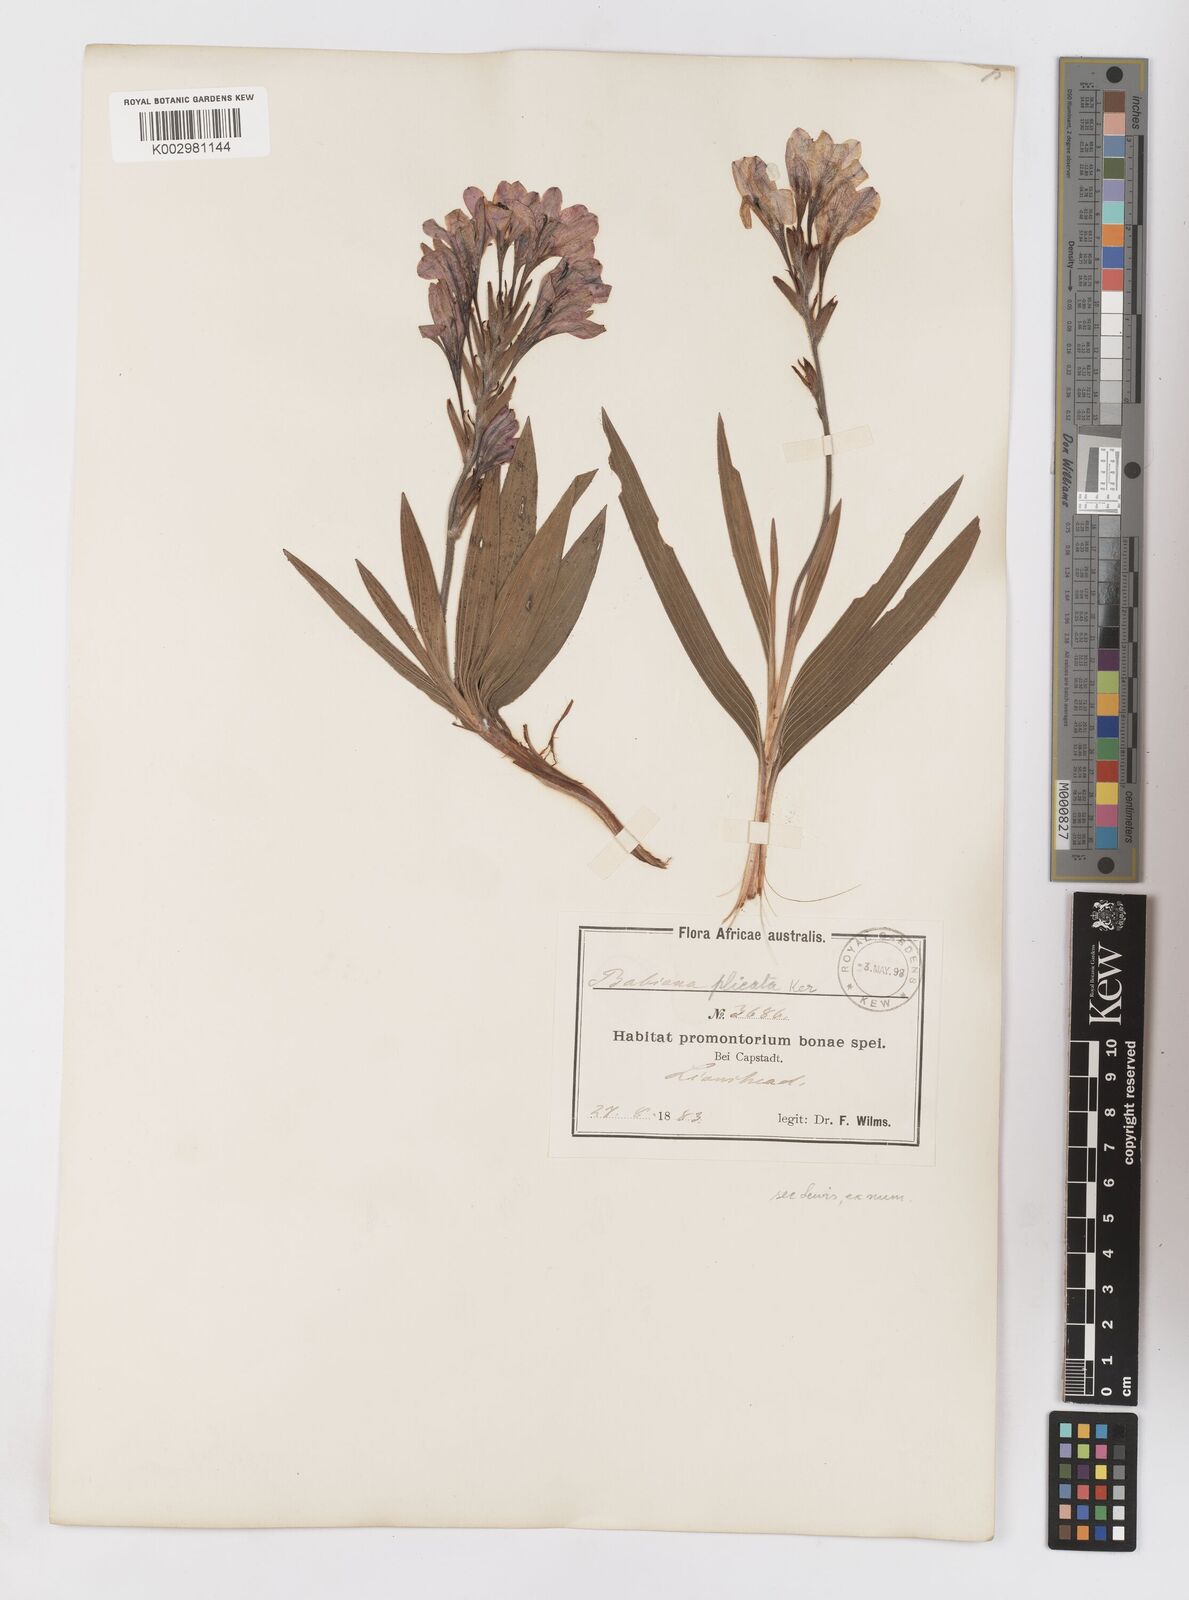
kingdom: Plantae
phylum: Tracheophyta
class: Liliopsida
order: Asparagales
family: Iridaceae
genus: Babiana
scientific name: Babiana
